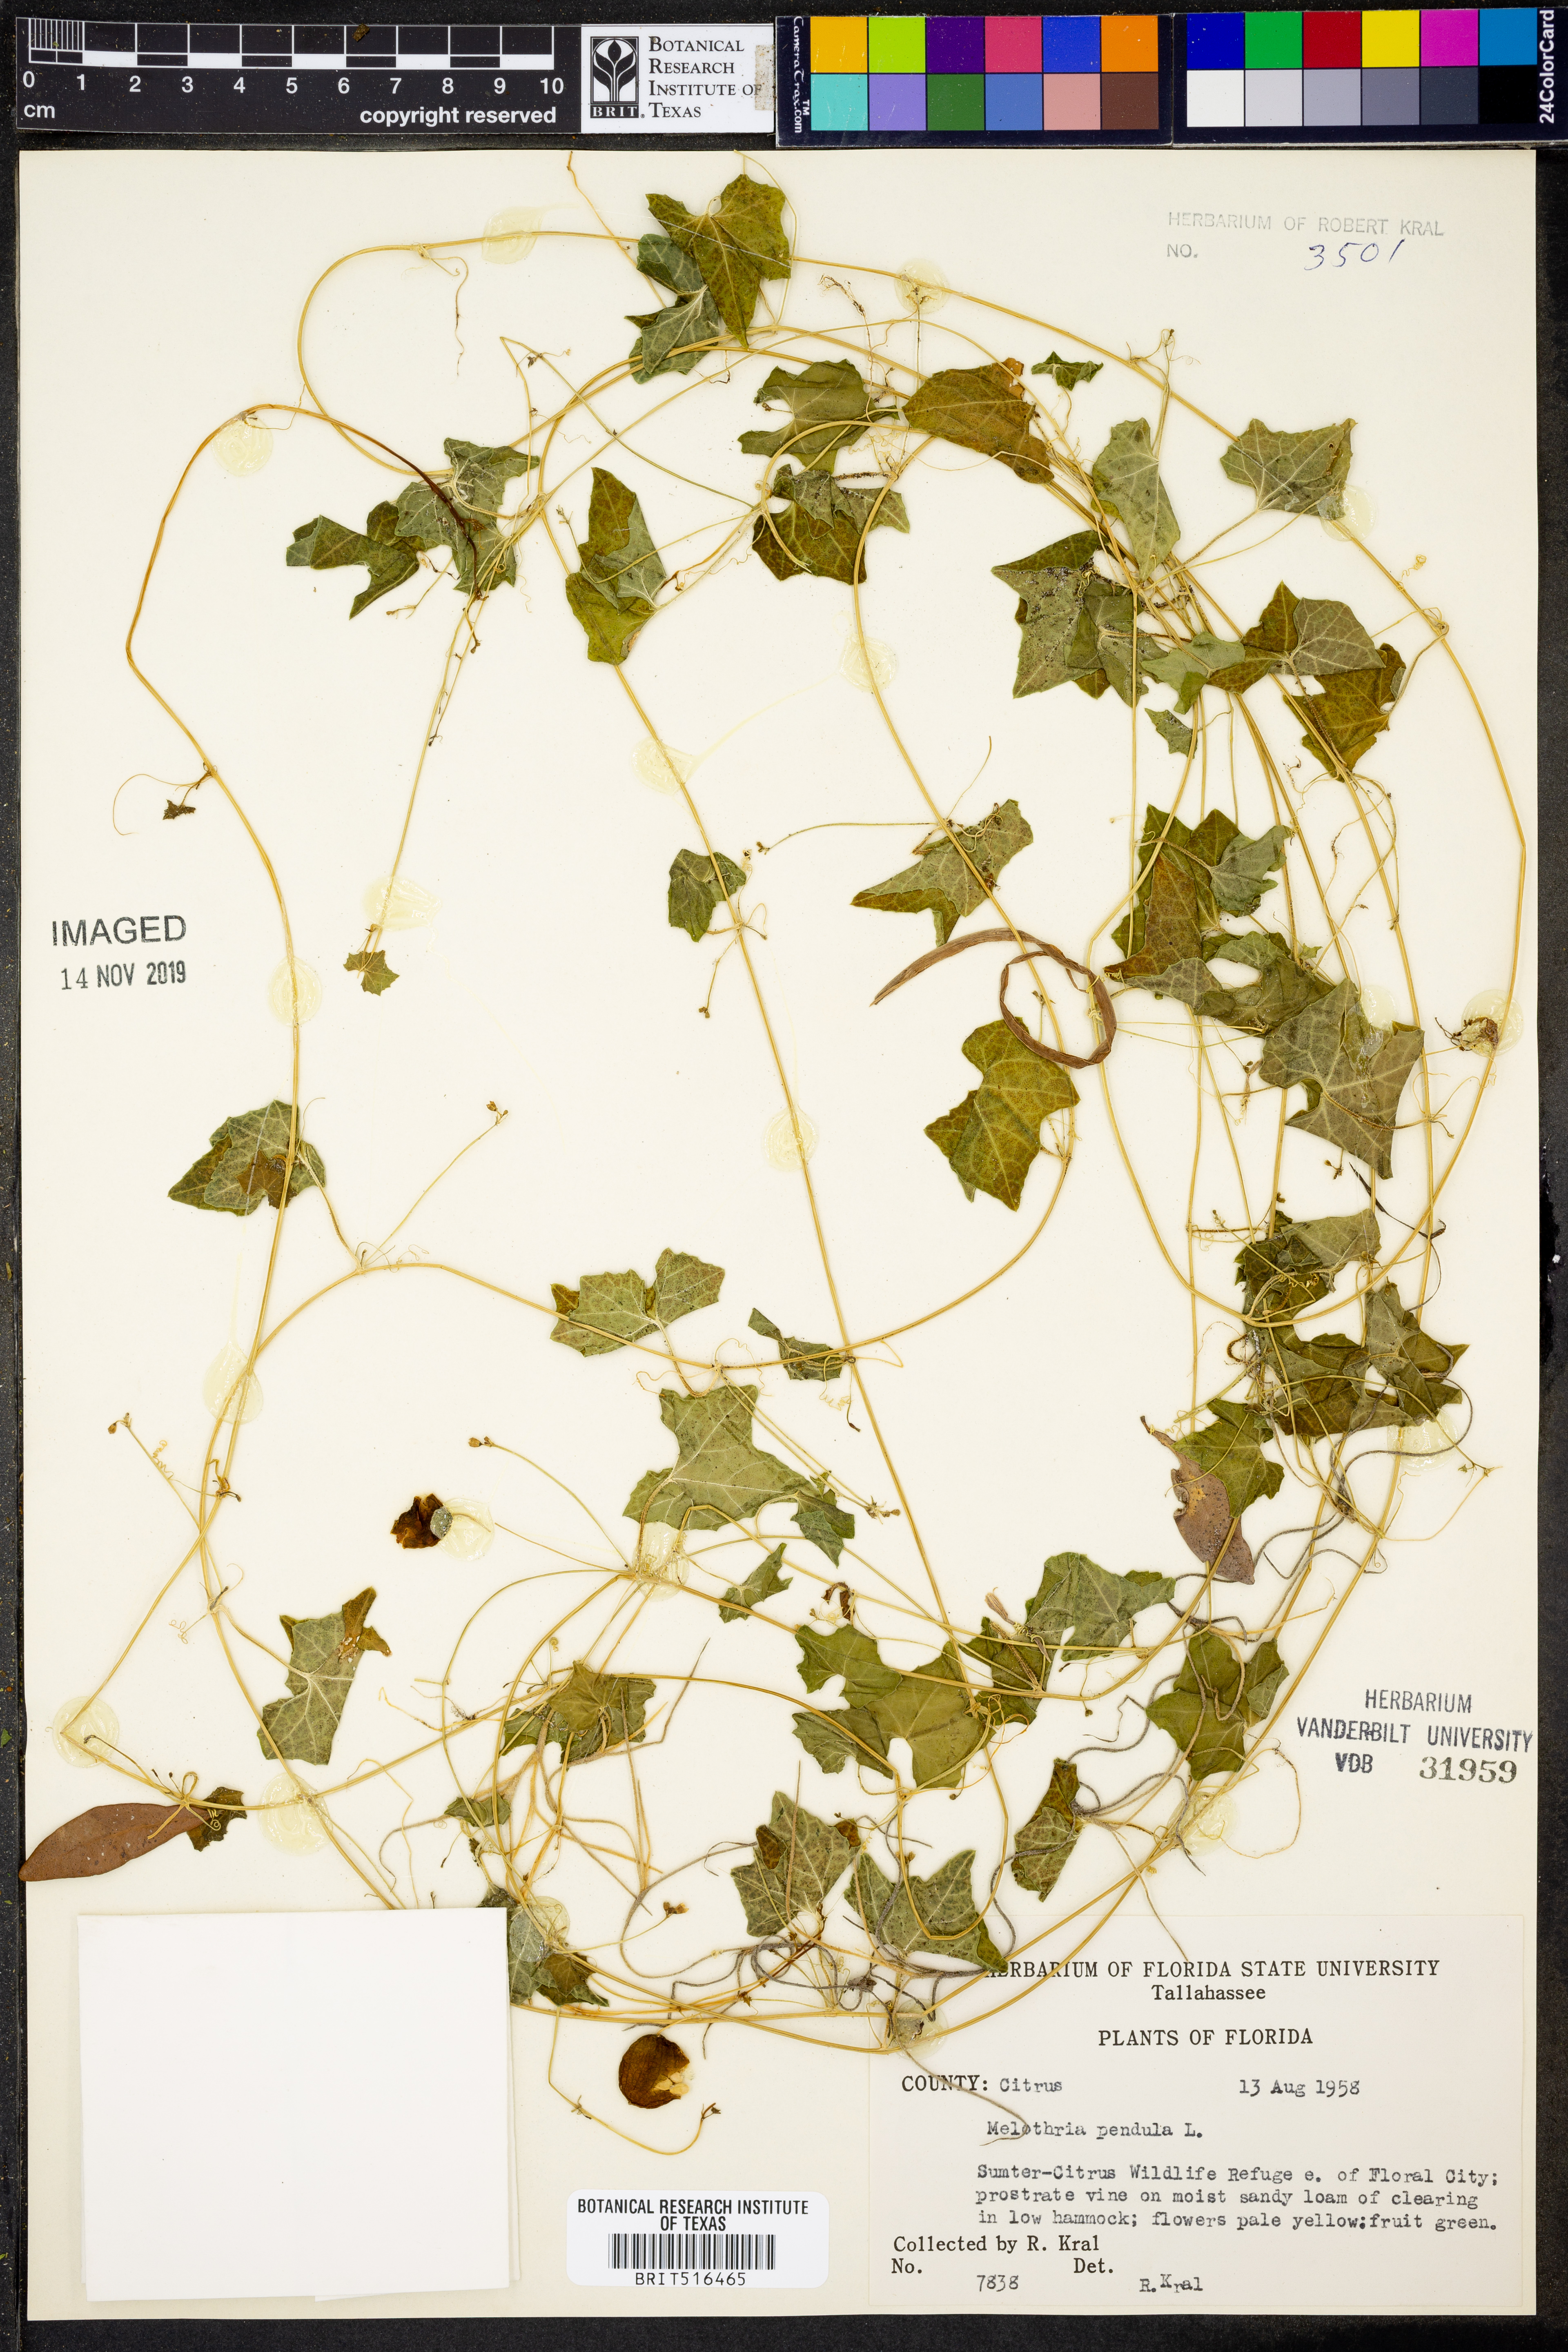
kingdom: Plantae
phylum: Tracheophyta
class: Magnoliopsida
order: Cucurbitales
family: Cucurbitaceae
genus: Melothria
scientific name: Melothria pendula
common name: Creeping-cucumber
